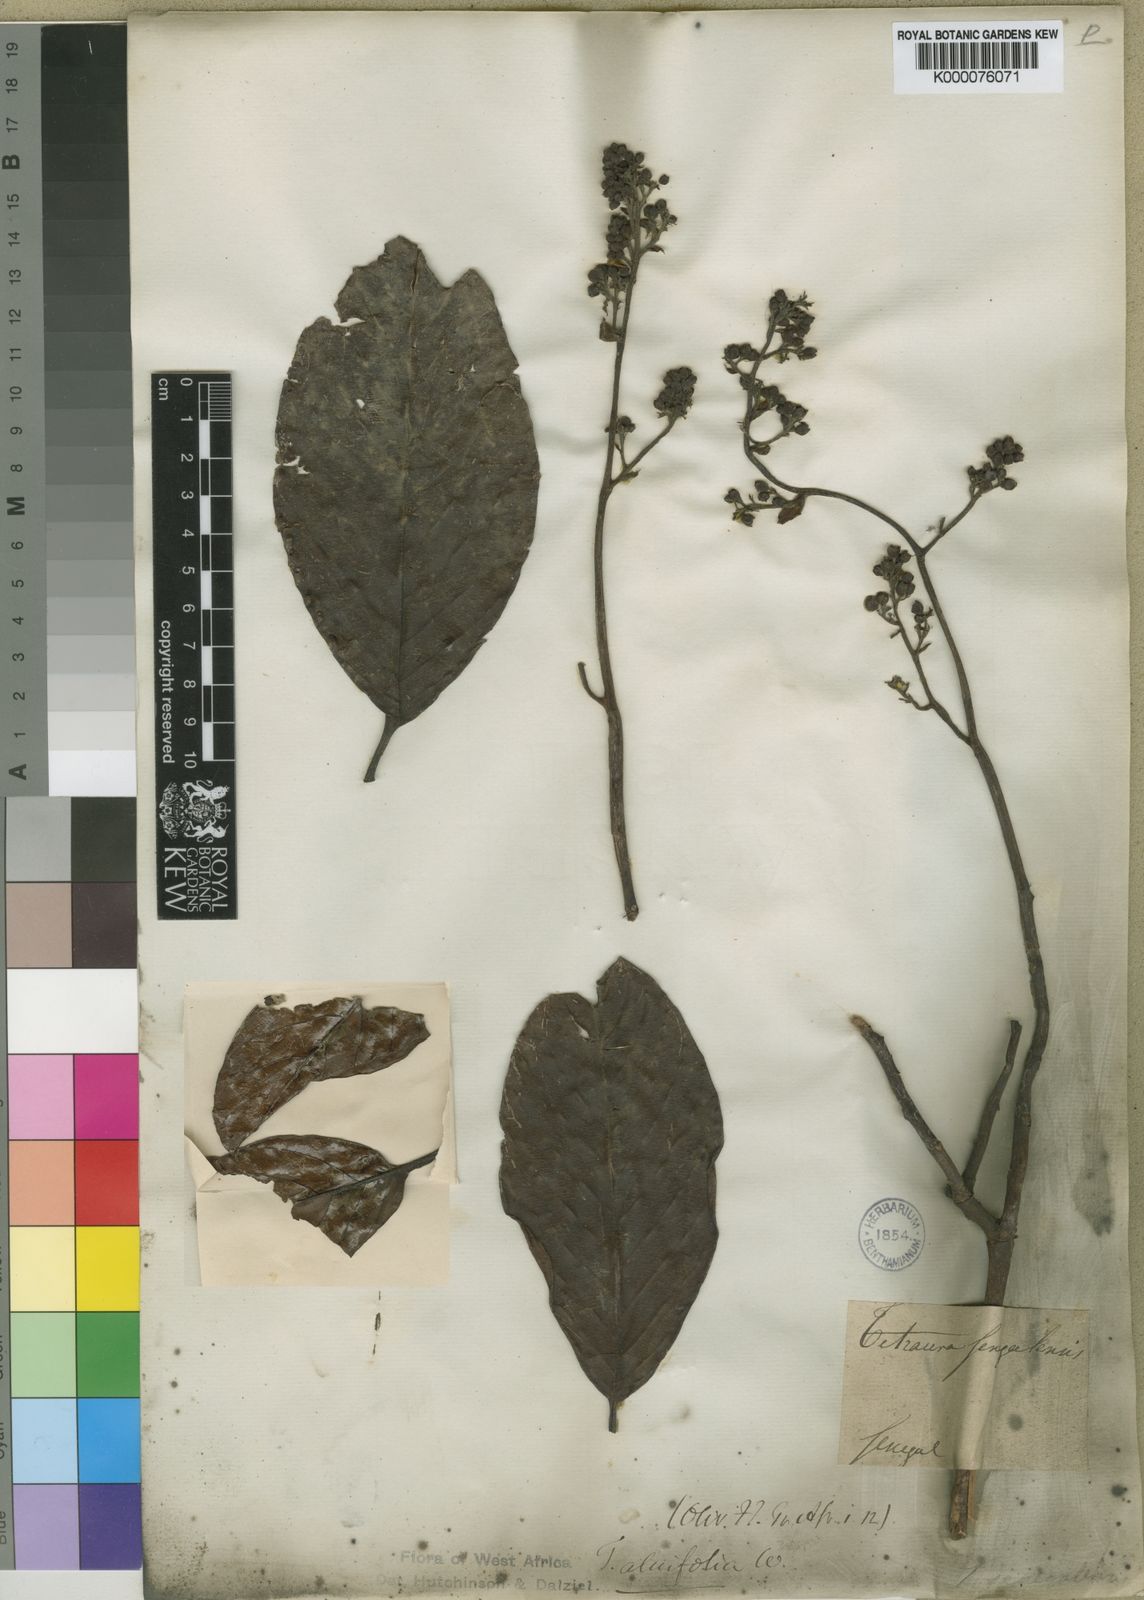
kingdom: Plantae
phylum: Tracheophyta
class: Magnoliopsida
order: Dilleniales
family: Dilleniaceae
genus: Tetracera
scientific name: Tetracera alnifolia
